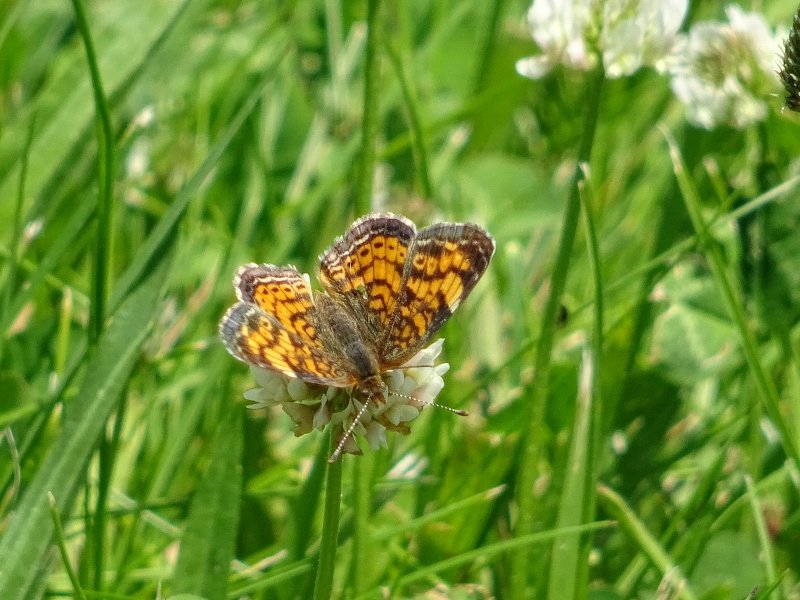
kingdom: Animalia
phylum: Arthropoda
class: Insecta
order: Lepidoptera
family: Nymphalidae
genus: Phyciodes
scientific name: Phyciodes tharos
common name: Pearl Crescent
